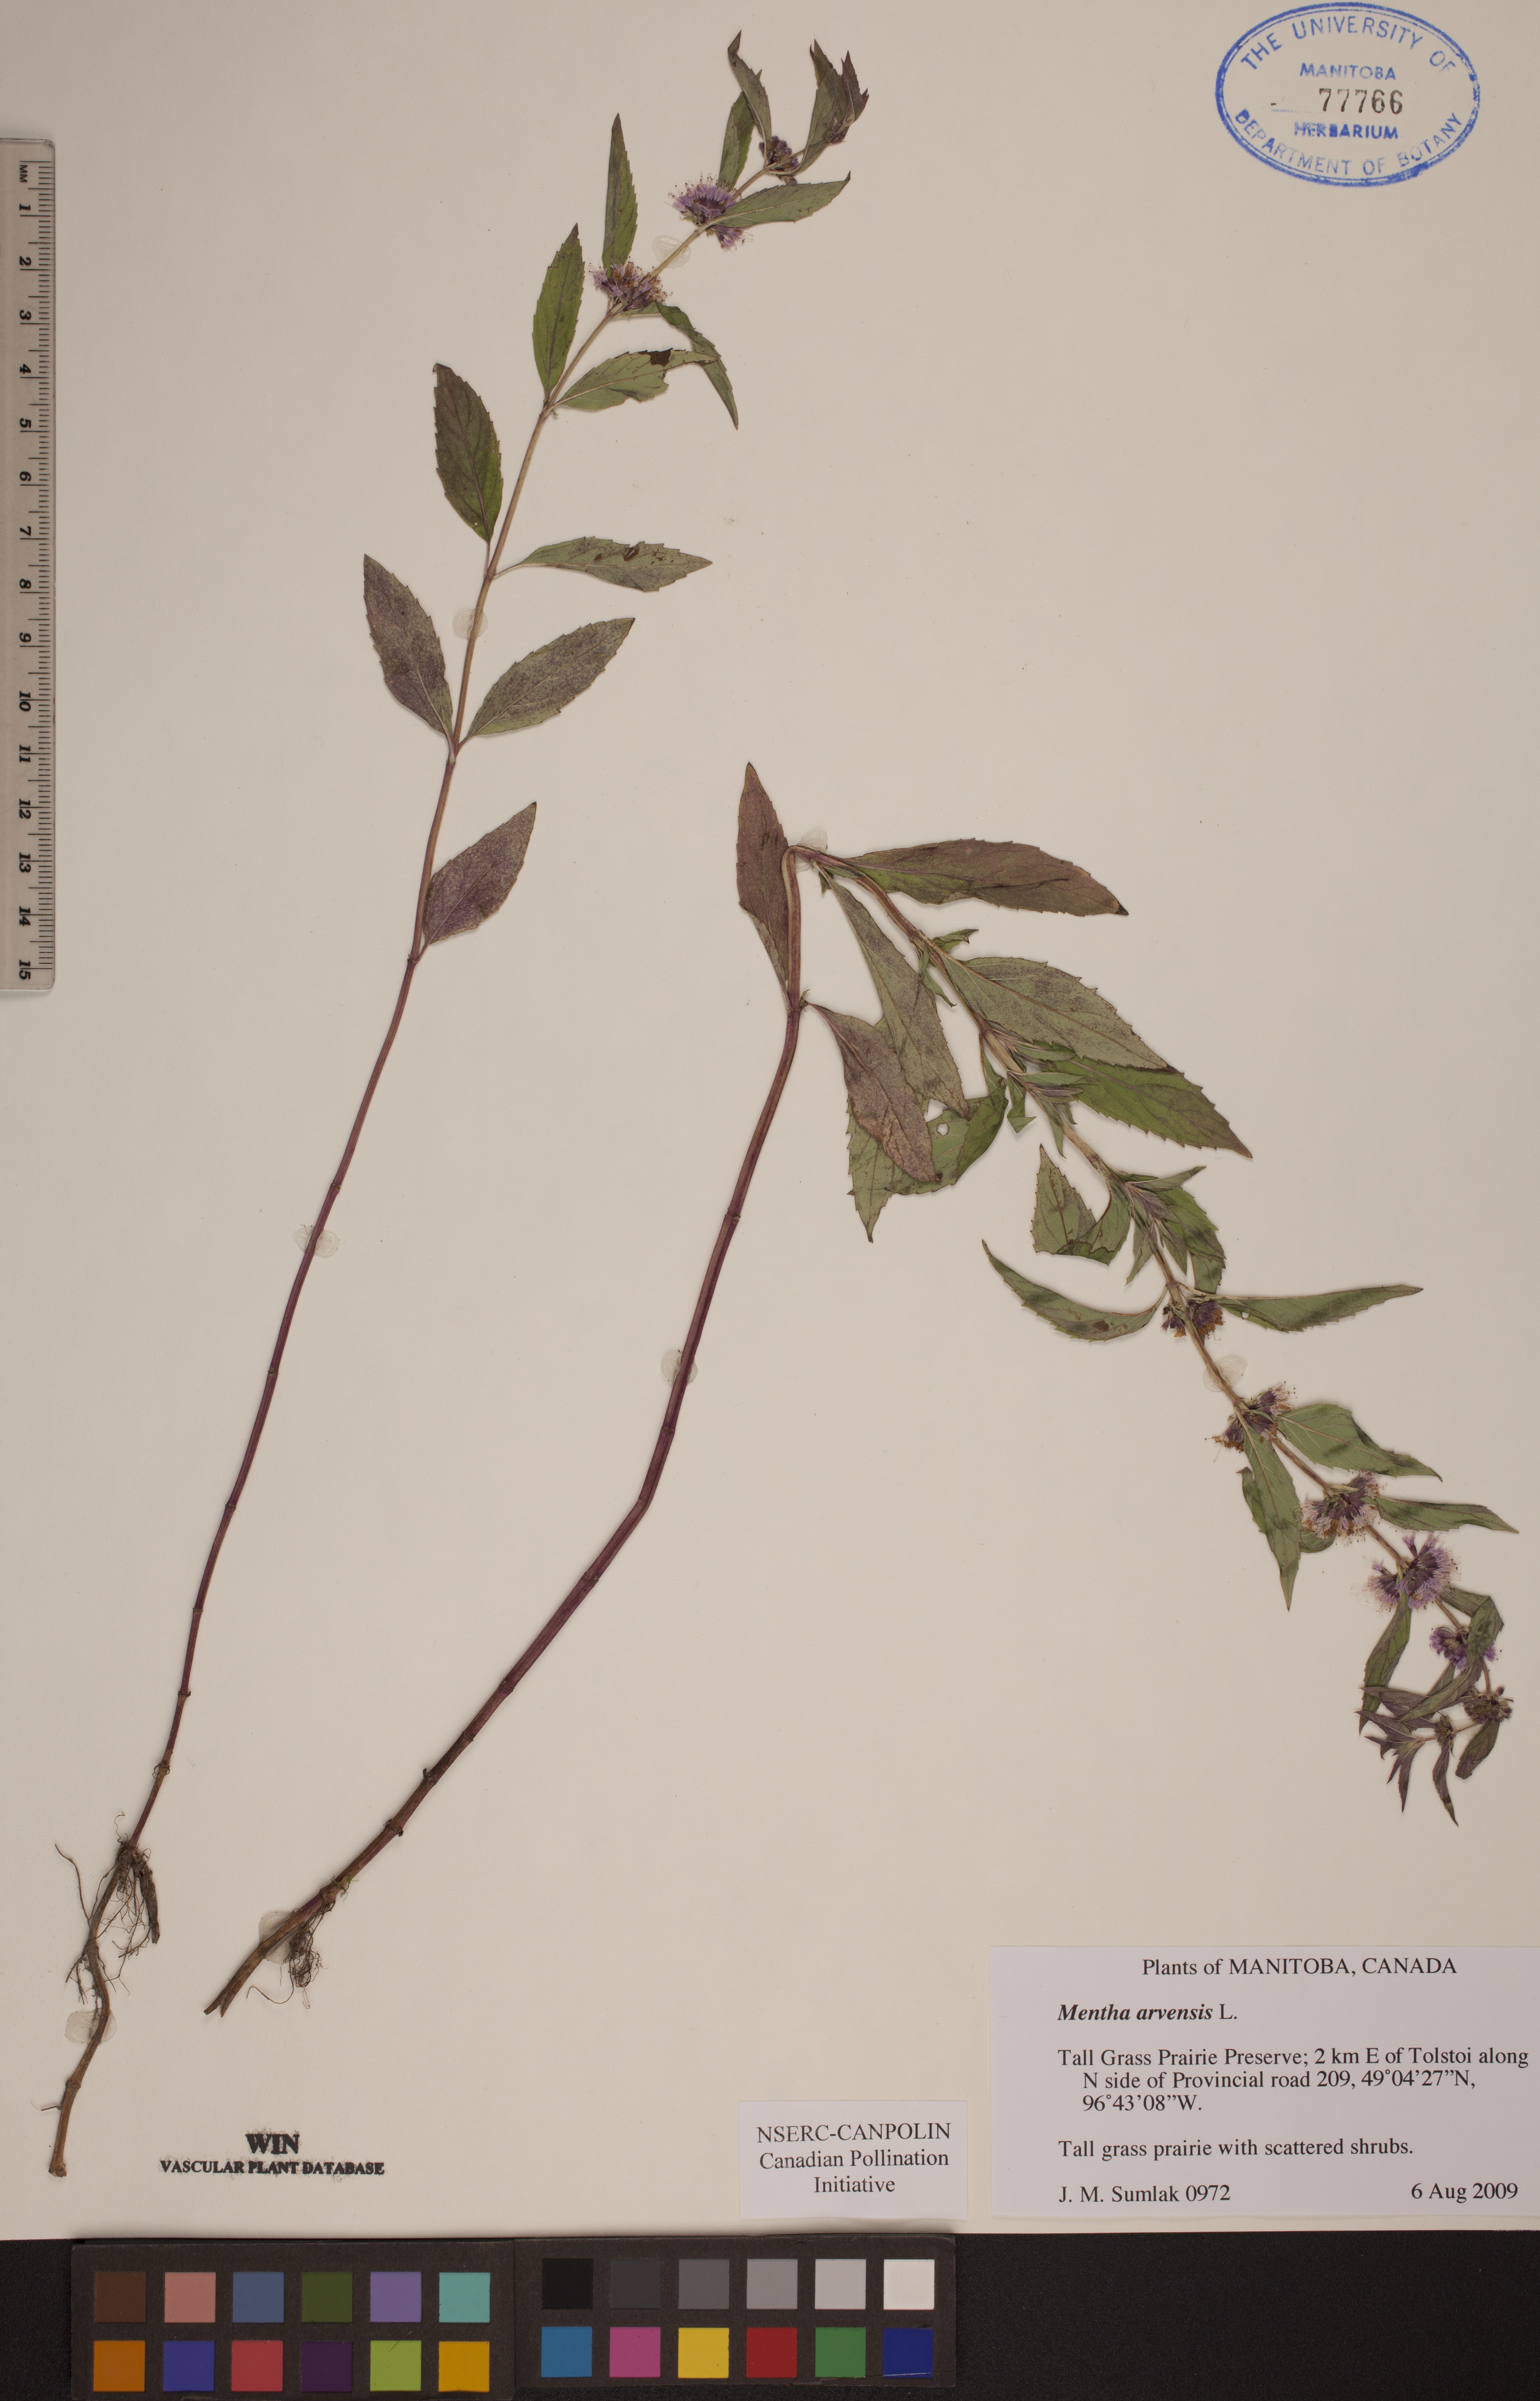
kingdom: Plantae
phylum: Tracheophyta
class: Magnoliopsida
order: Lamiales
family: Lamiaceae
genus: Mentha
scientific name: Mentha arvensis
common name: Corn mint
